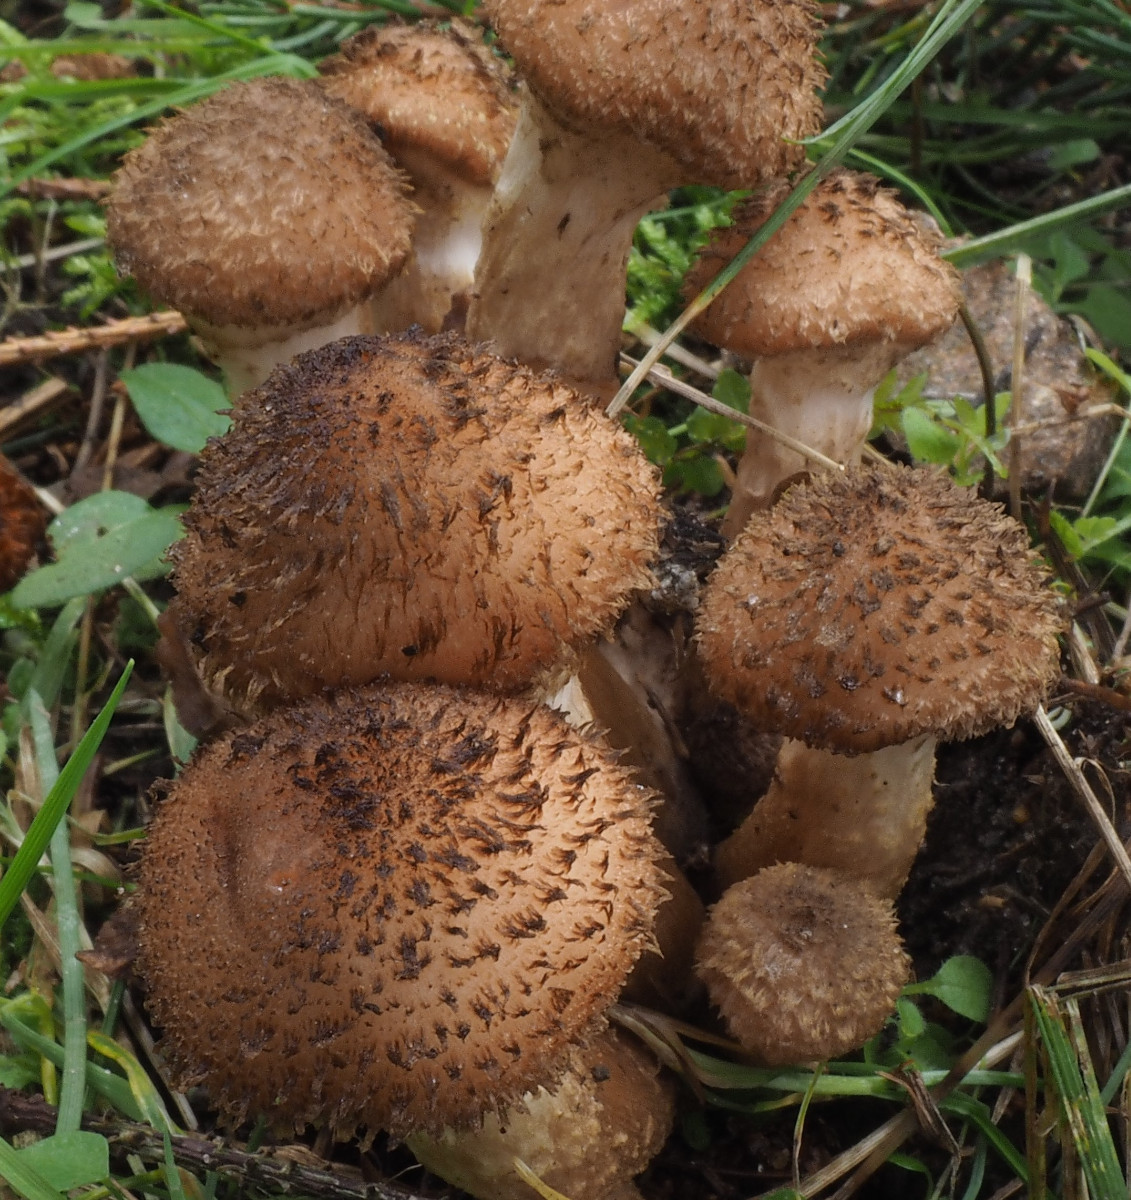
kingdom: Fungi
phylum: Basidiomycota
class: Agaricomycetes
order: Agaricales
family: Physalacriaceae
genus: Armillaria
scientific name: Armillaria ostoyae
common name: mørk honningsvamp
